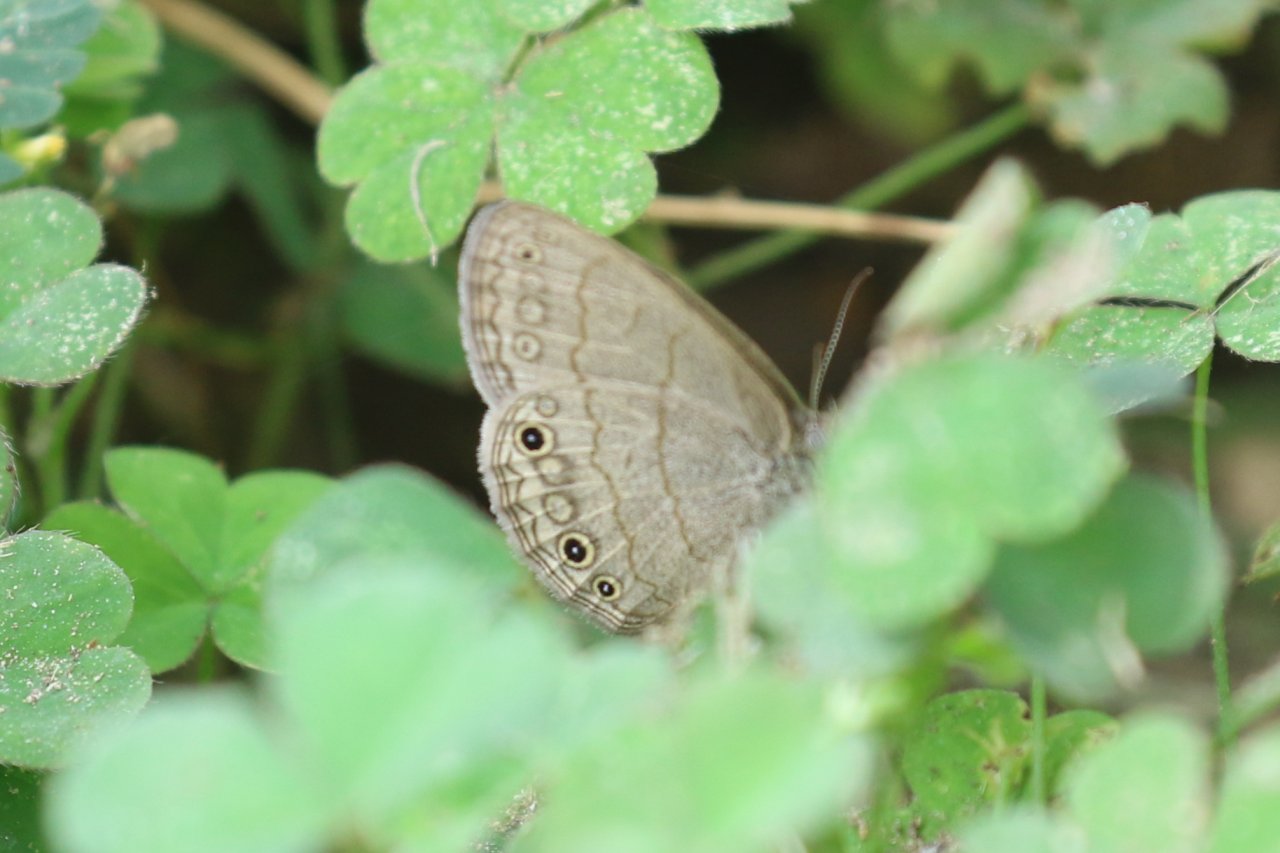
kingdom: Animalia
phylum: Arthropoda
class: Insecta
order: Lepidoptera
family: Nymphalidae
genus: Hermeuptychia
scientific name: Hermeuptychia hermybius
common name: South Texas Satyr
